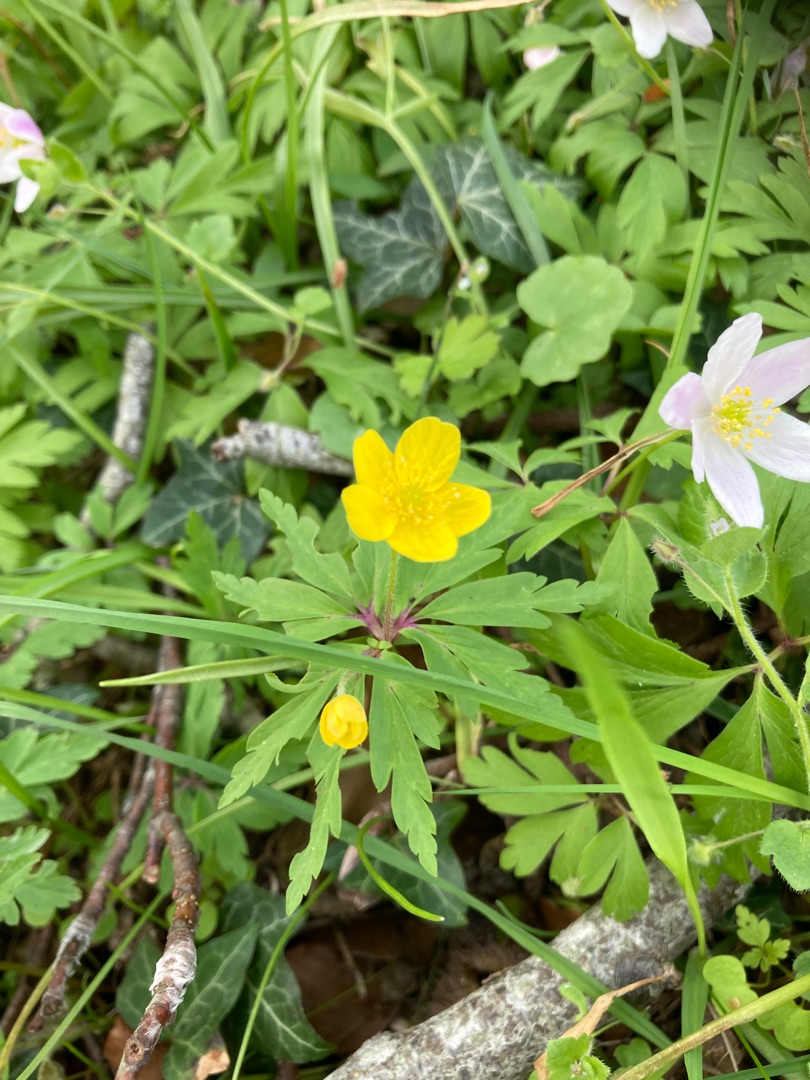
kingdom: Plantae
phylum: Tracheophyta
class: Magnoliopsida
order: Ranunculales
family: Ranunculaceae
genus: Anemone
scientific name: Anemone ranunculoides
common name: Gul anemone
